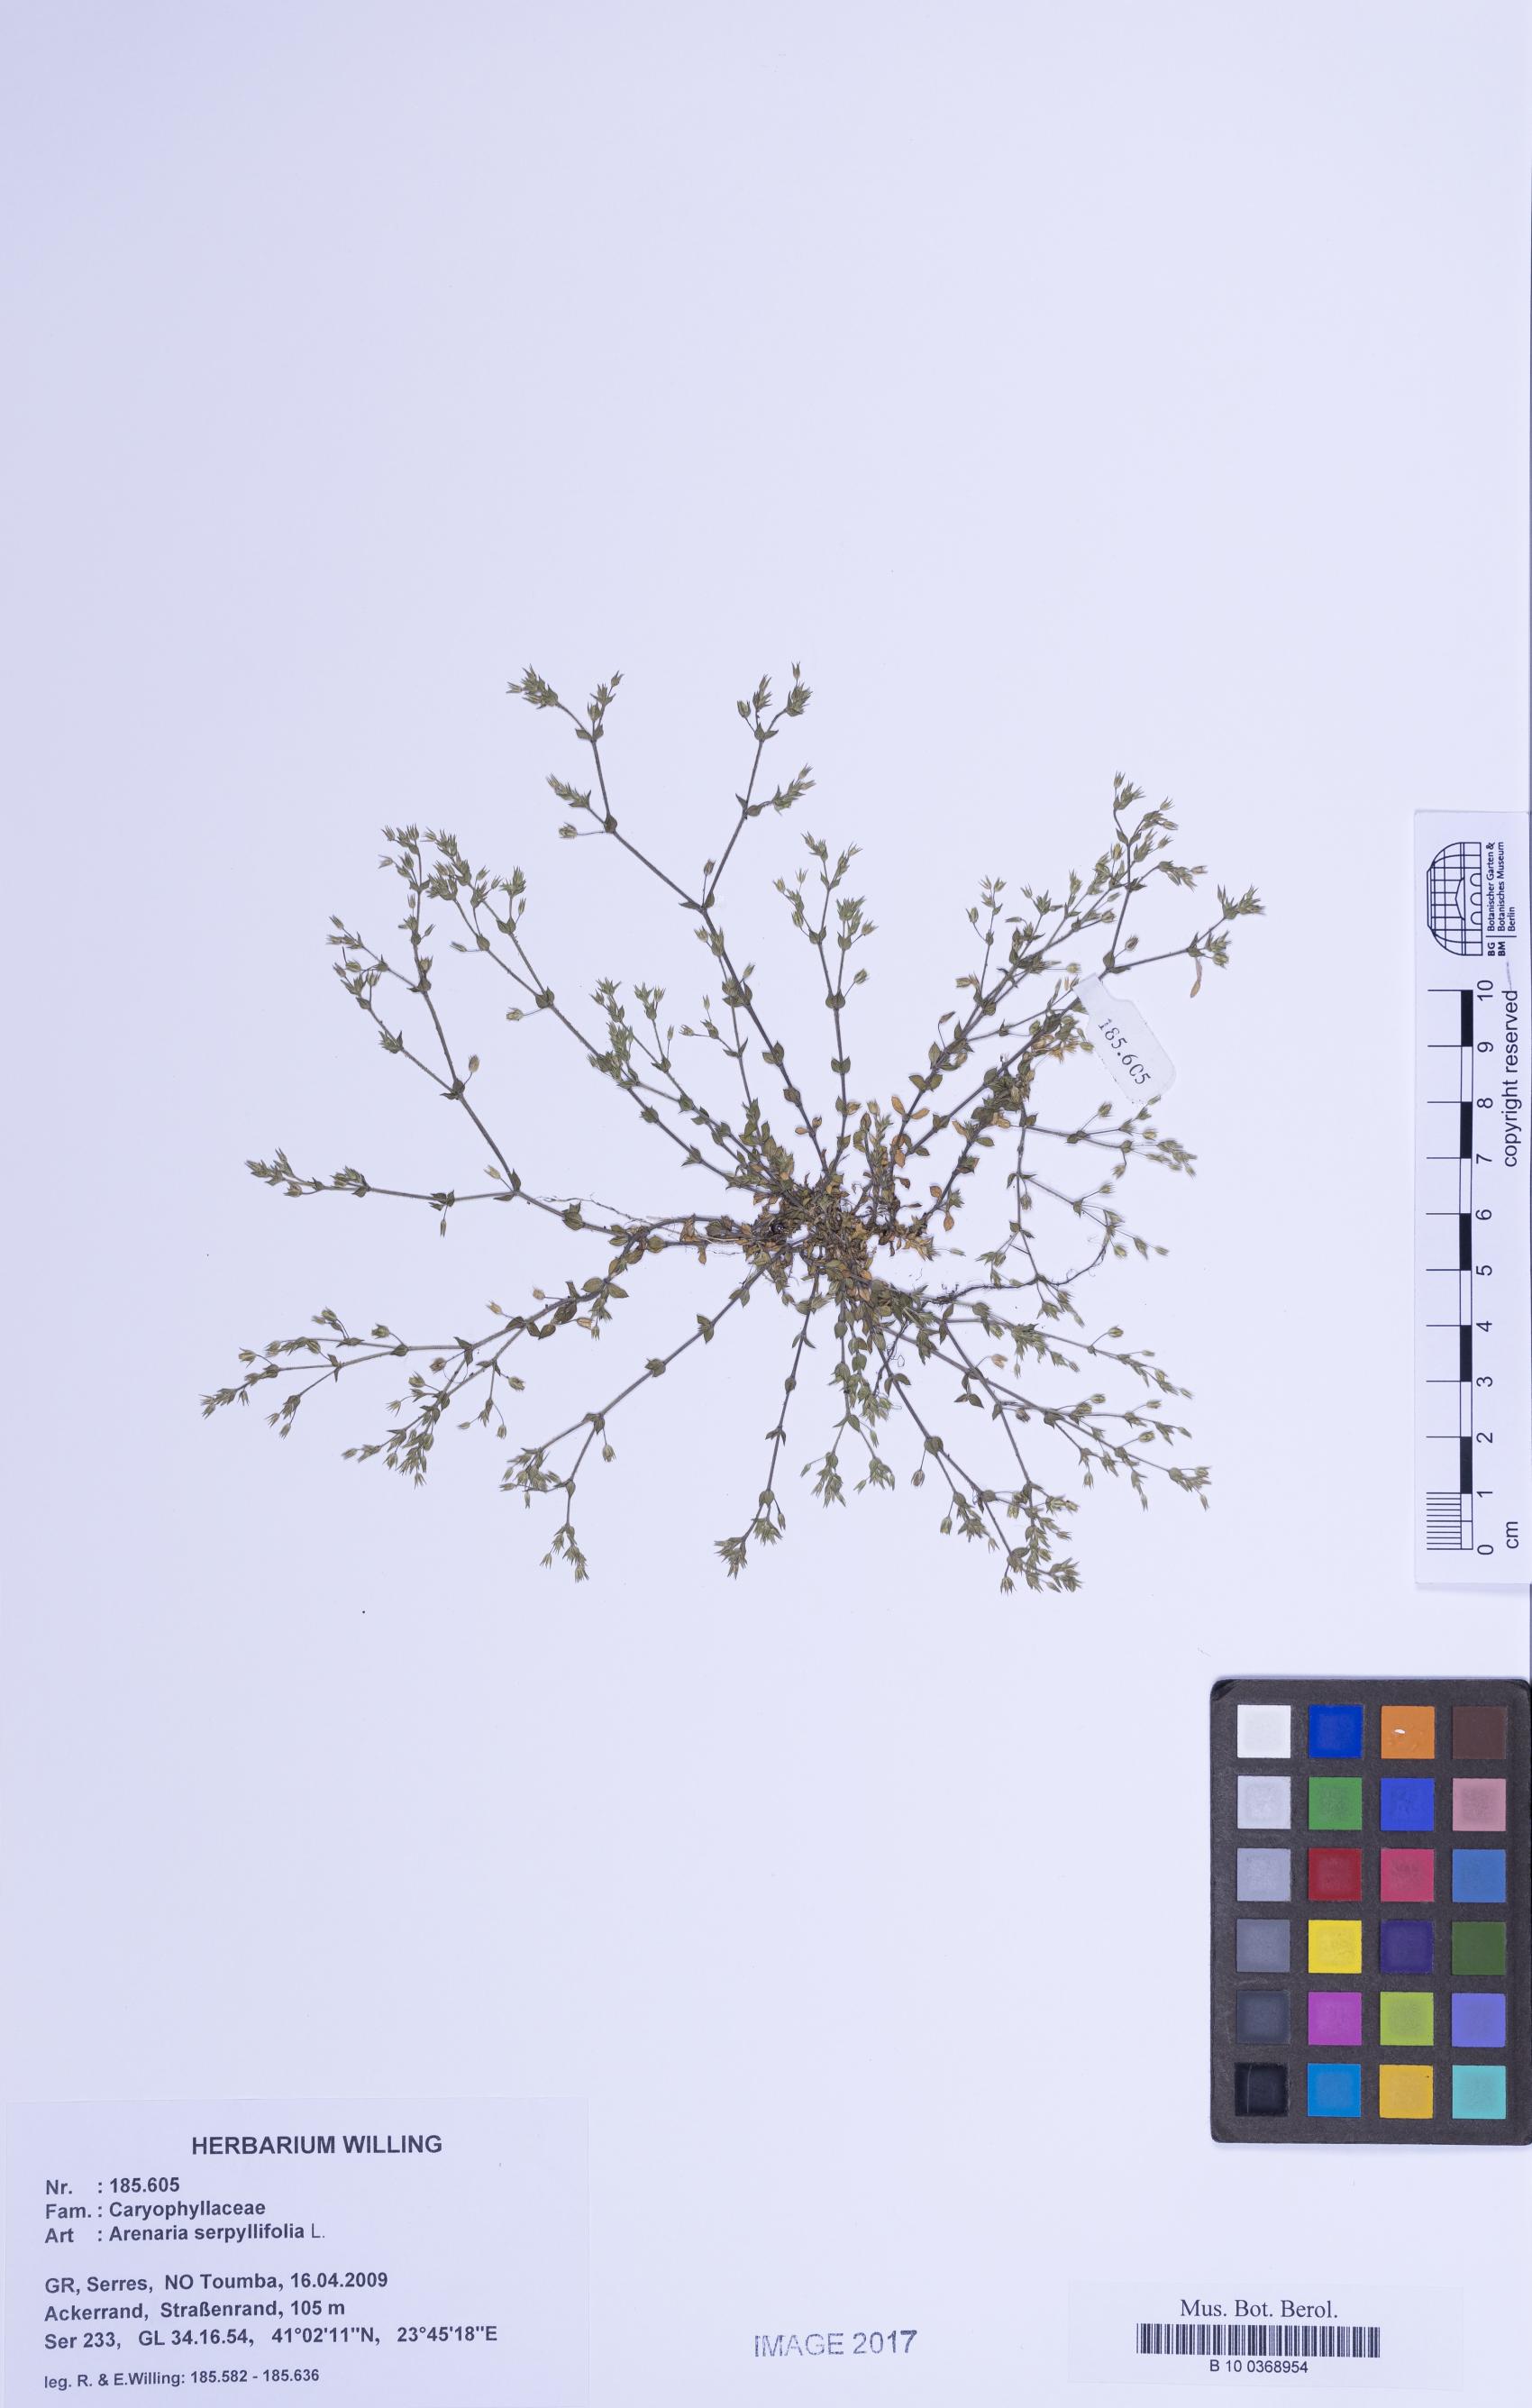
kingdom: Plantae
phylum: Tracheophyta
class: Magnoliopsida
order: Caryophyllales
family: Caryophyllaceae
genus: Arenaria
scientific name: Arenaria serpyllifolia
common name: Thyme-leaved sandwort
